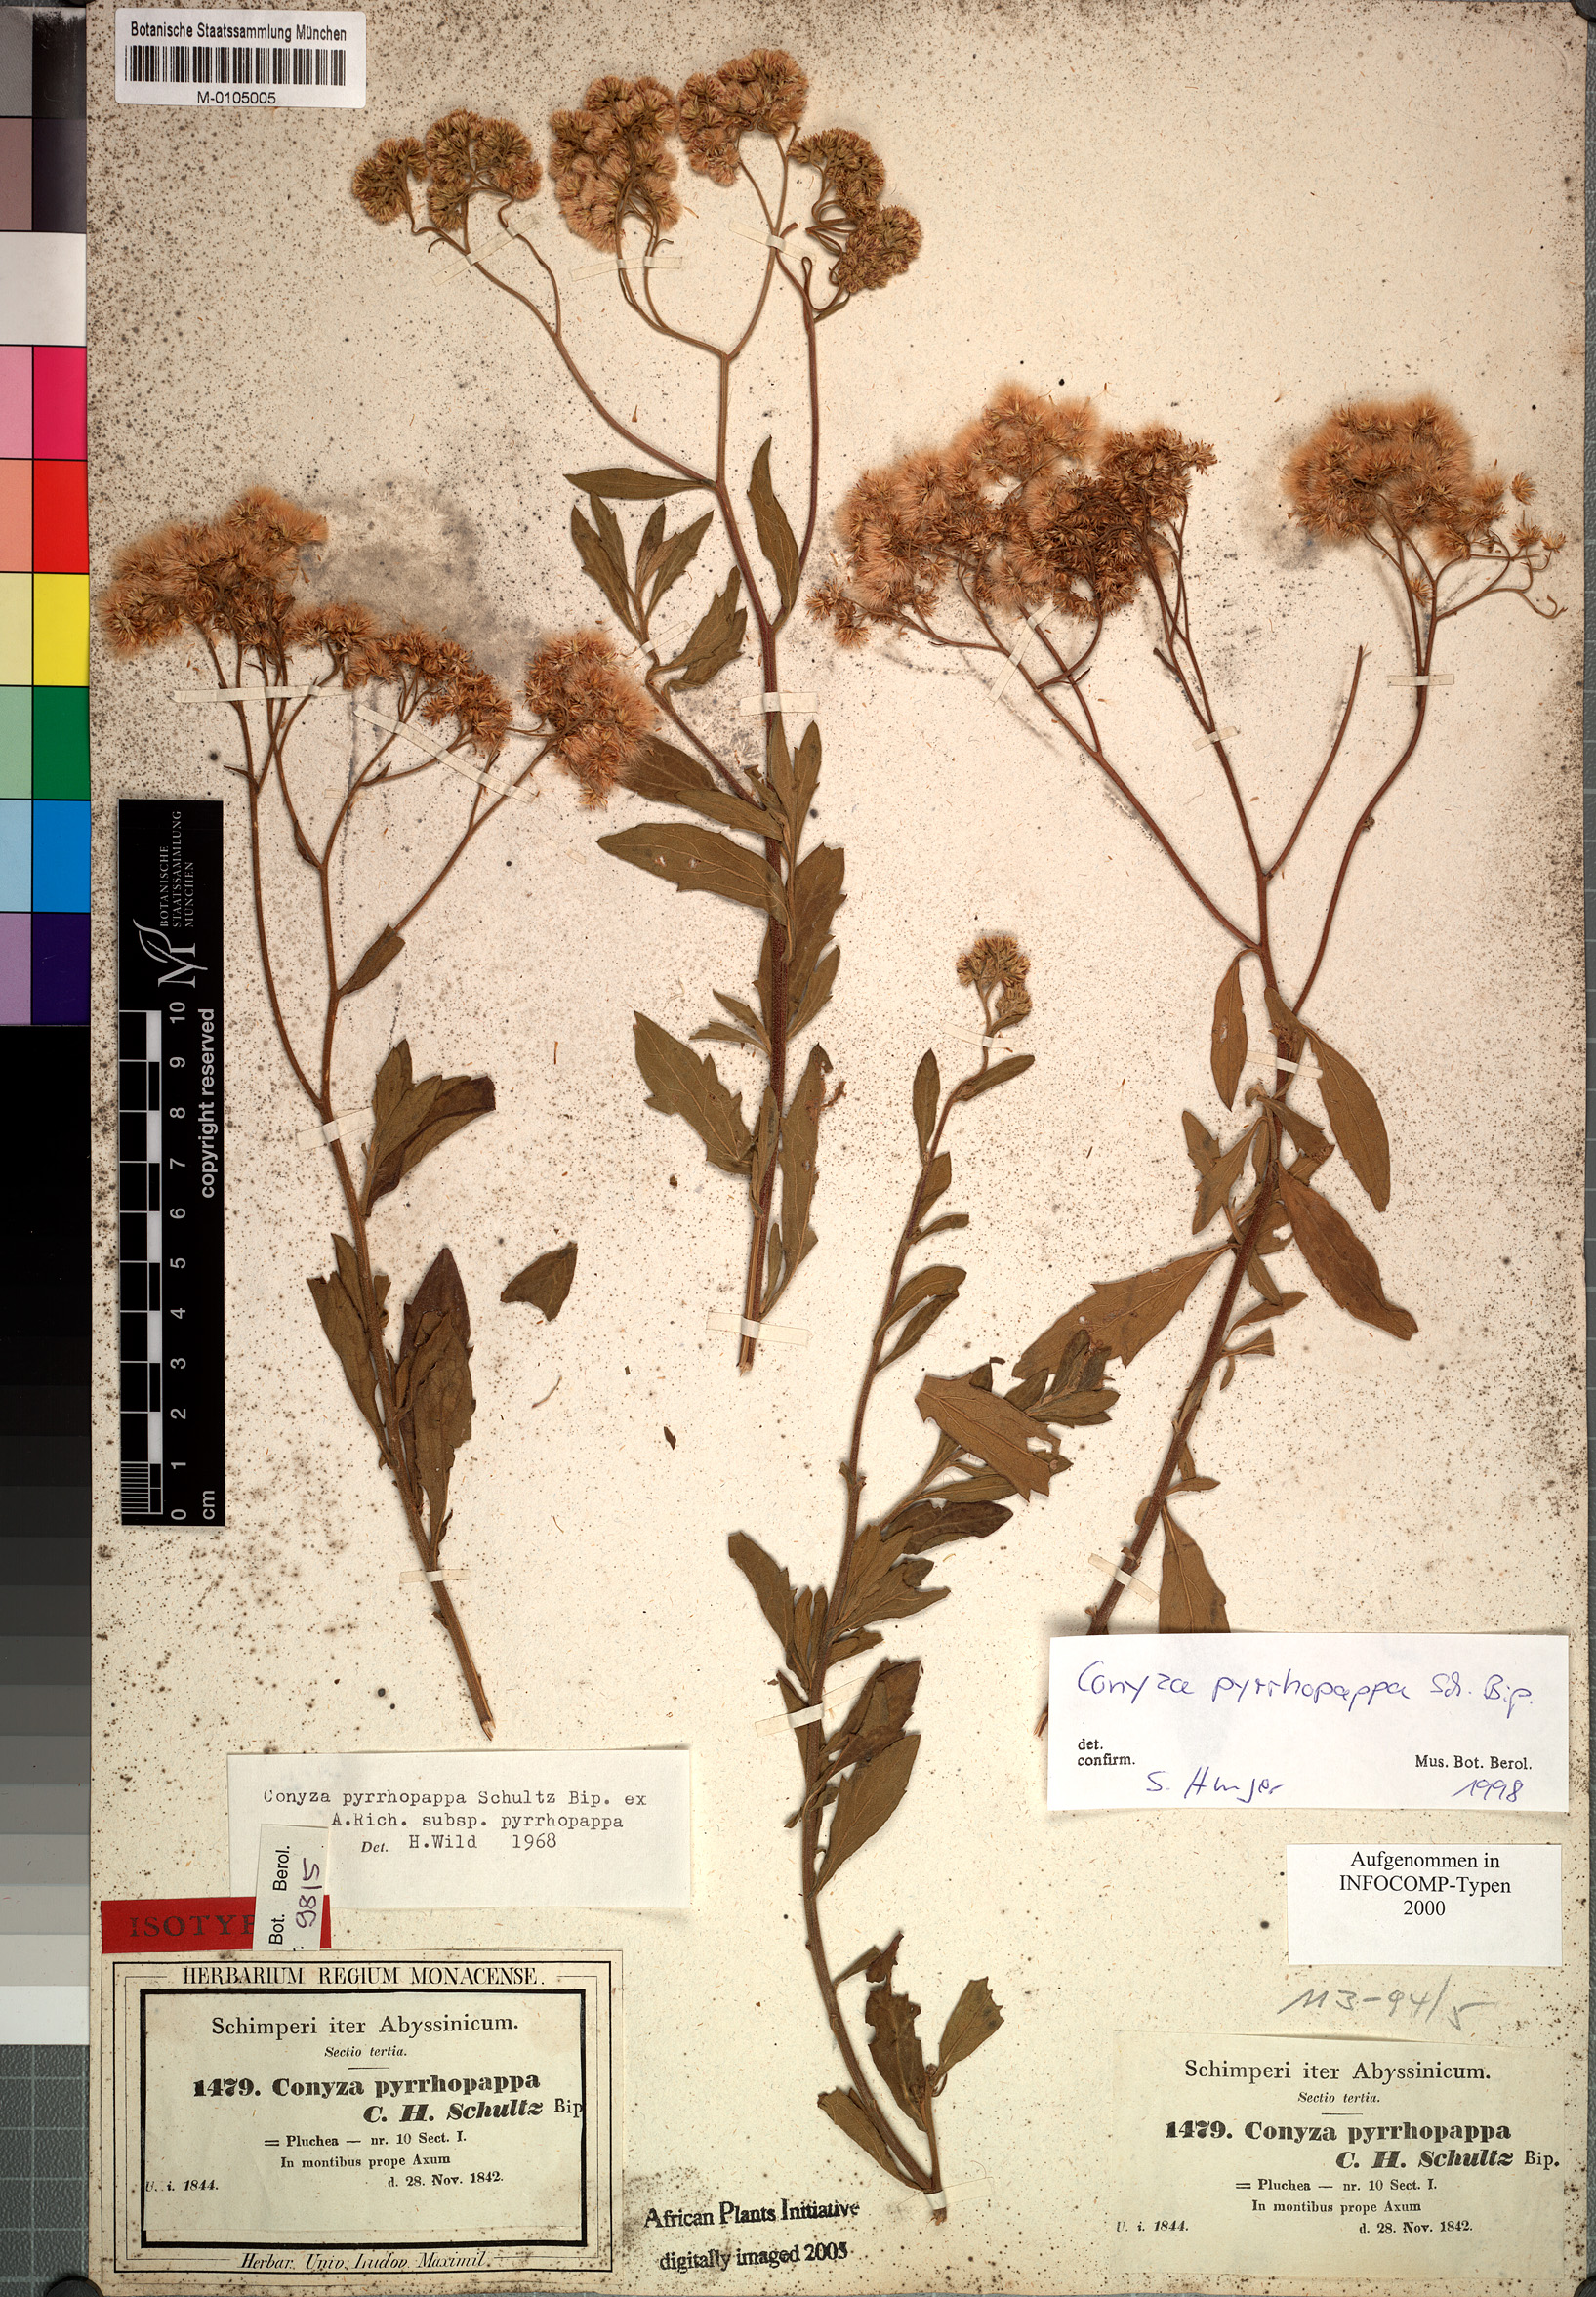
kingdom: Plantae
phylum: Tracheophyta
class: Magnoliopsida
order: Asterales
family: Asteraceae
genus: Microglossa
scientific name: Microglossa pyrrhopappa
